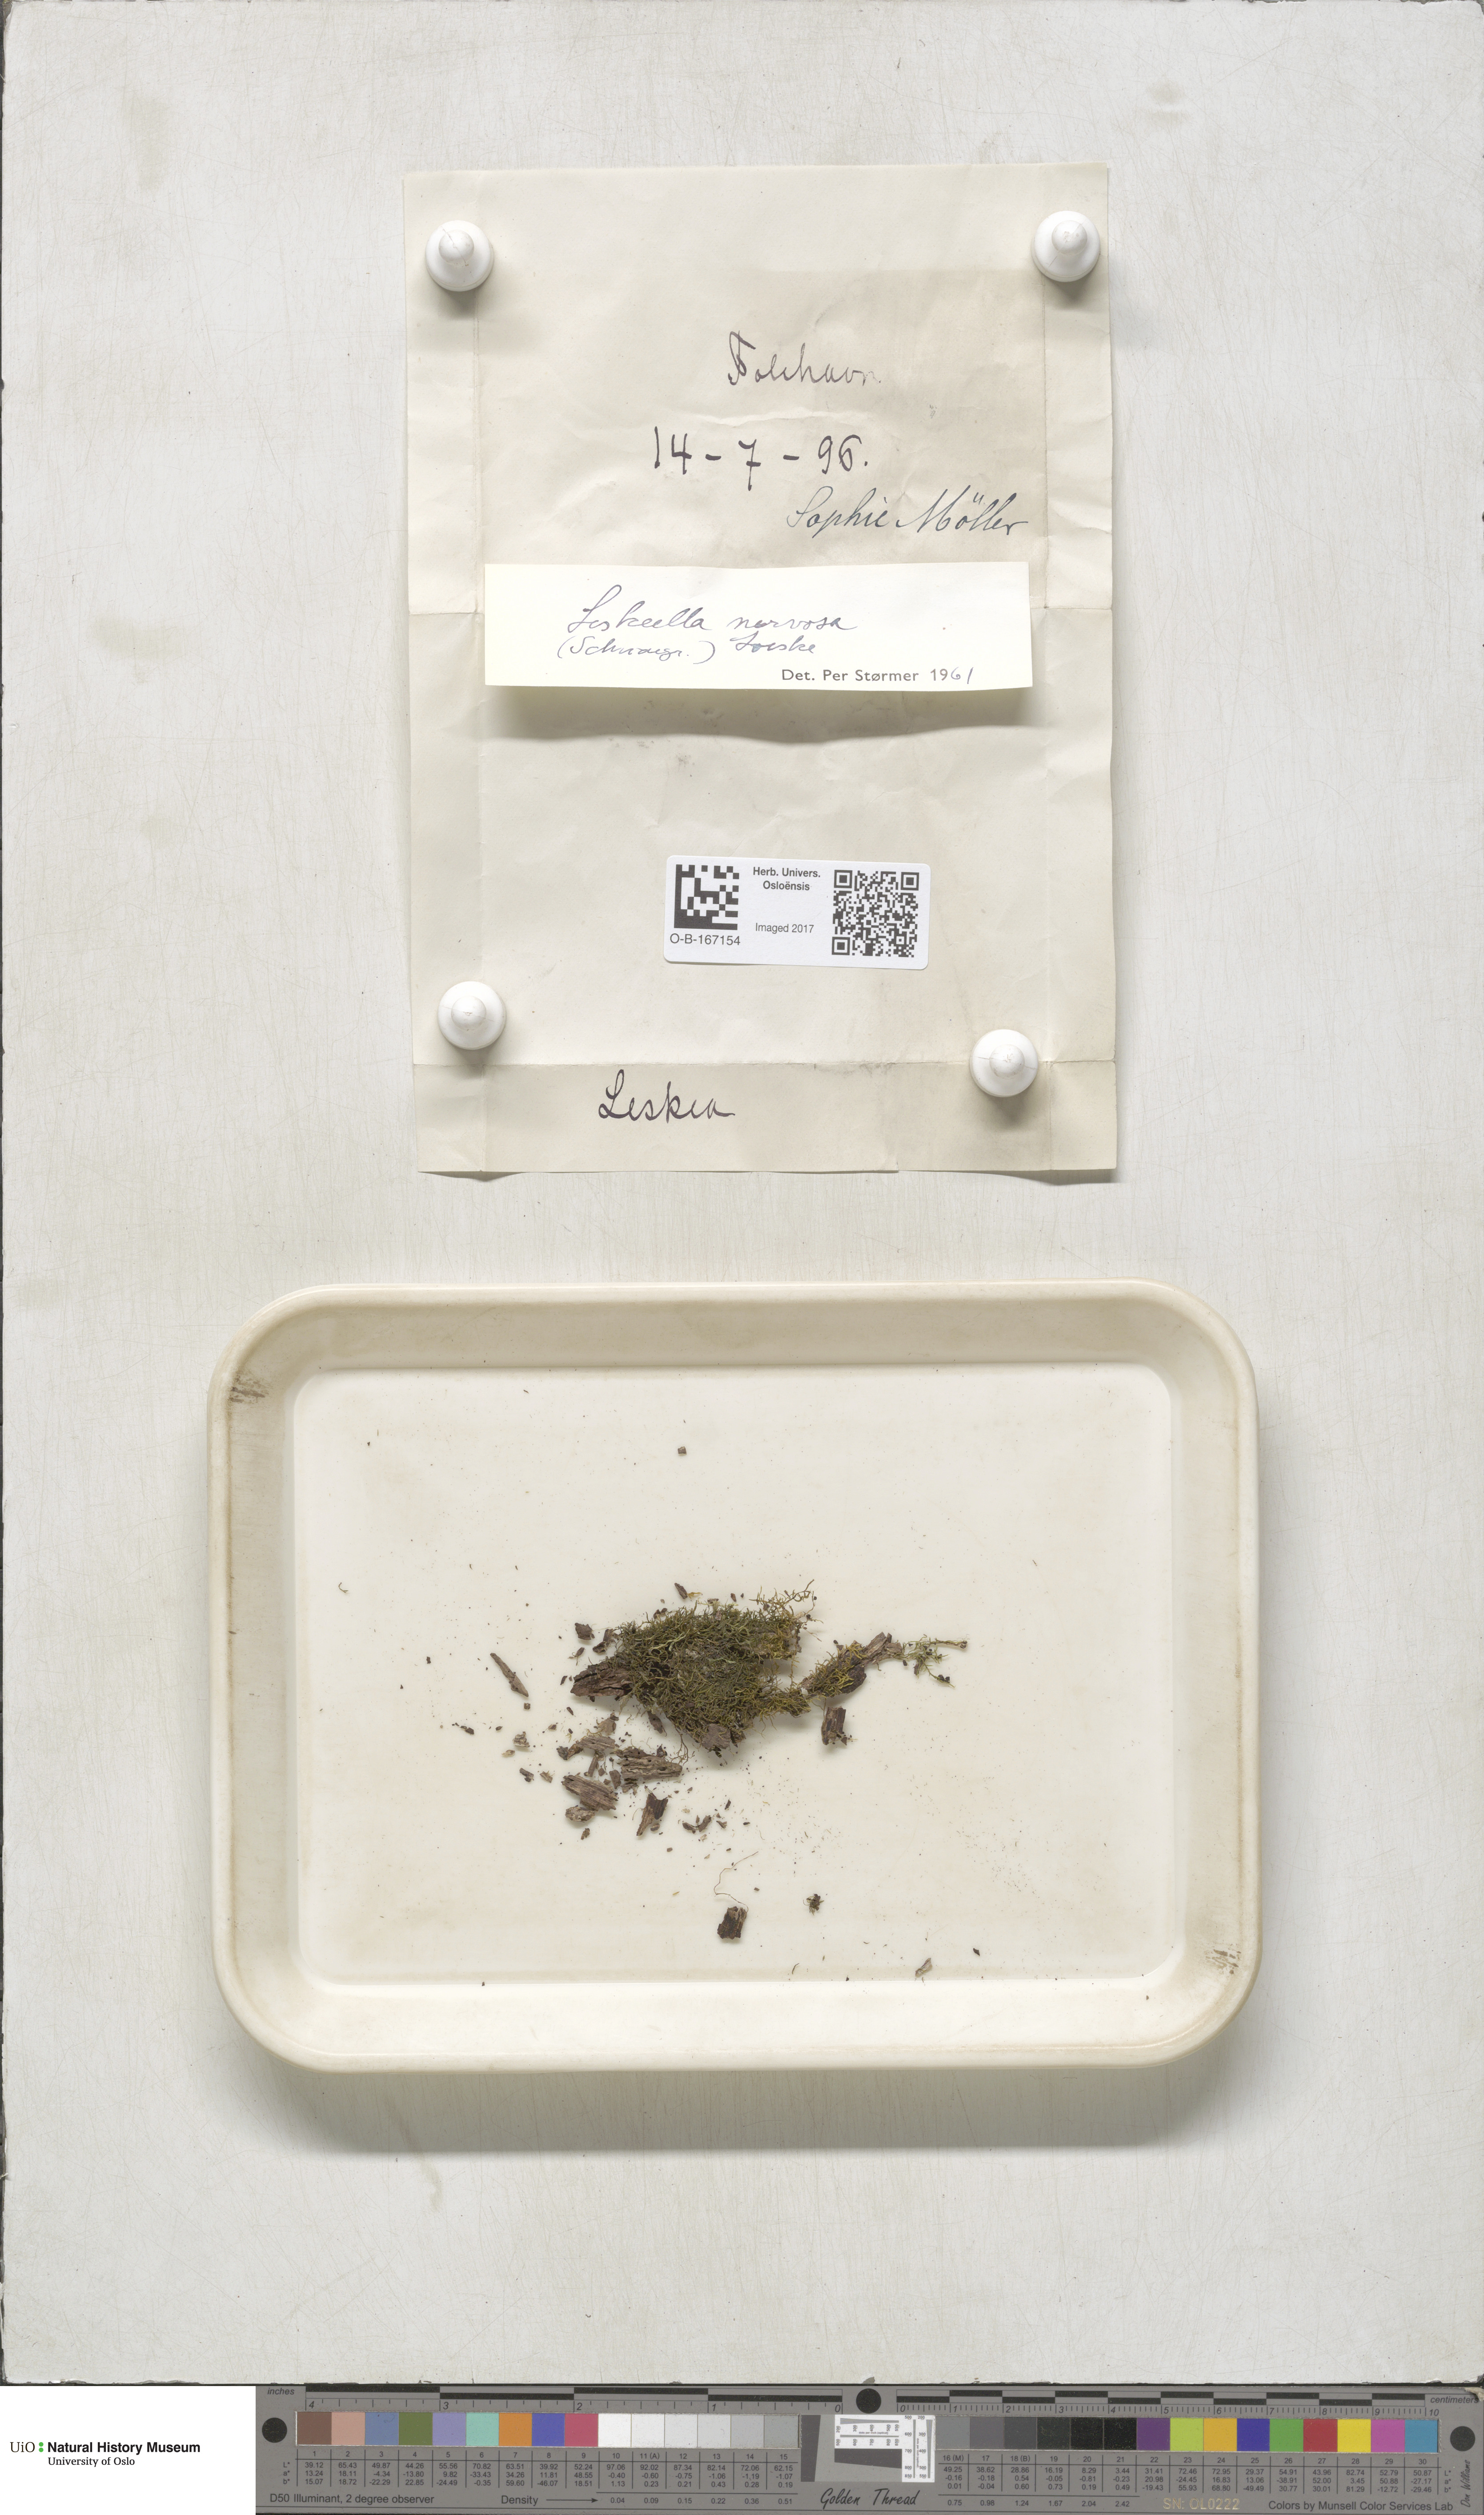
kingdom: Plantae
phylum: Bryophyta
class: Bryopsida
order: Hypnales
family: Pseudoleskeellaceae
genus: Pseudoleskeella
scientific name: Pseudoleskeella nervosa
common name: Nerved leske's moss
